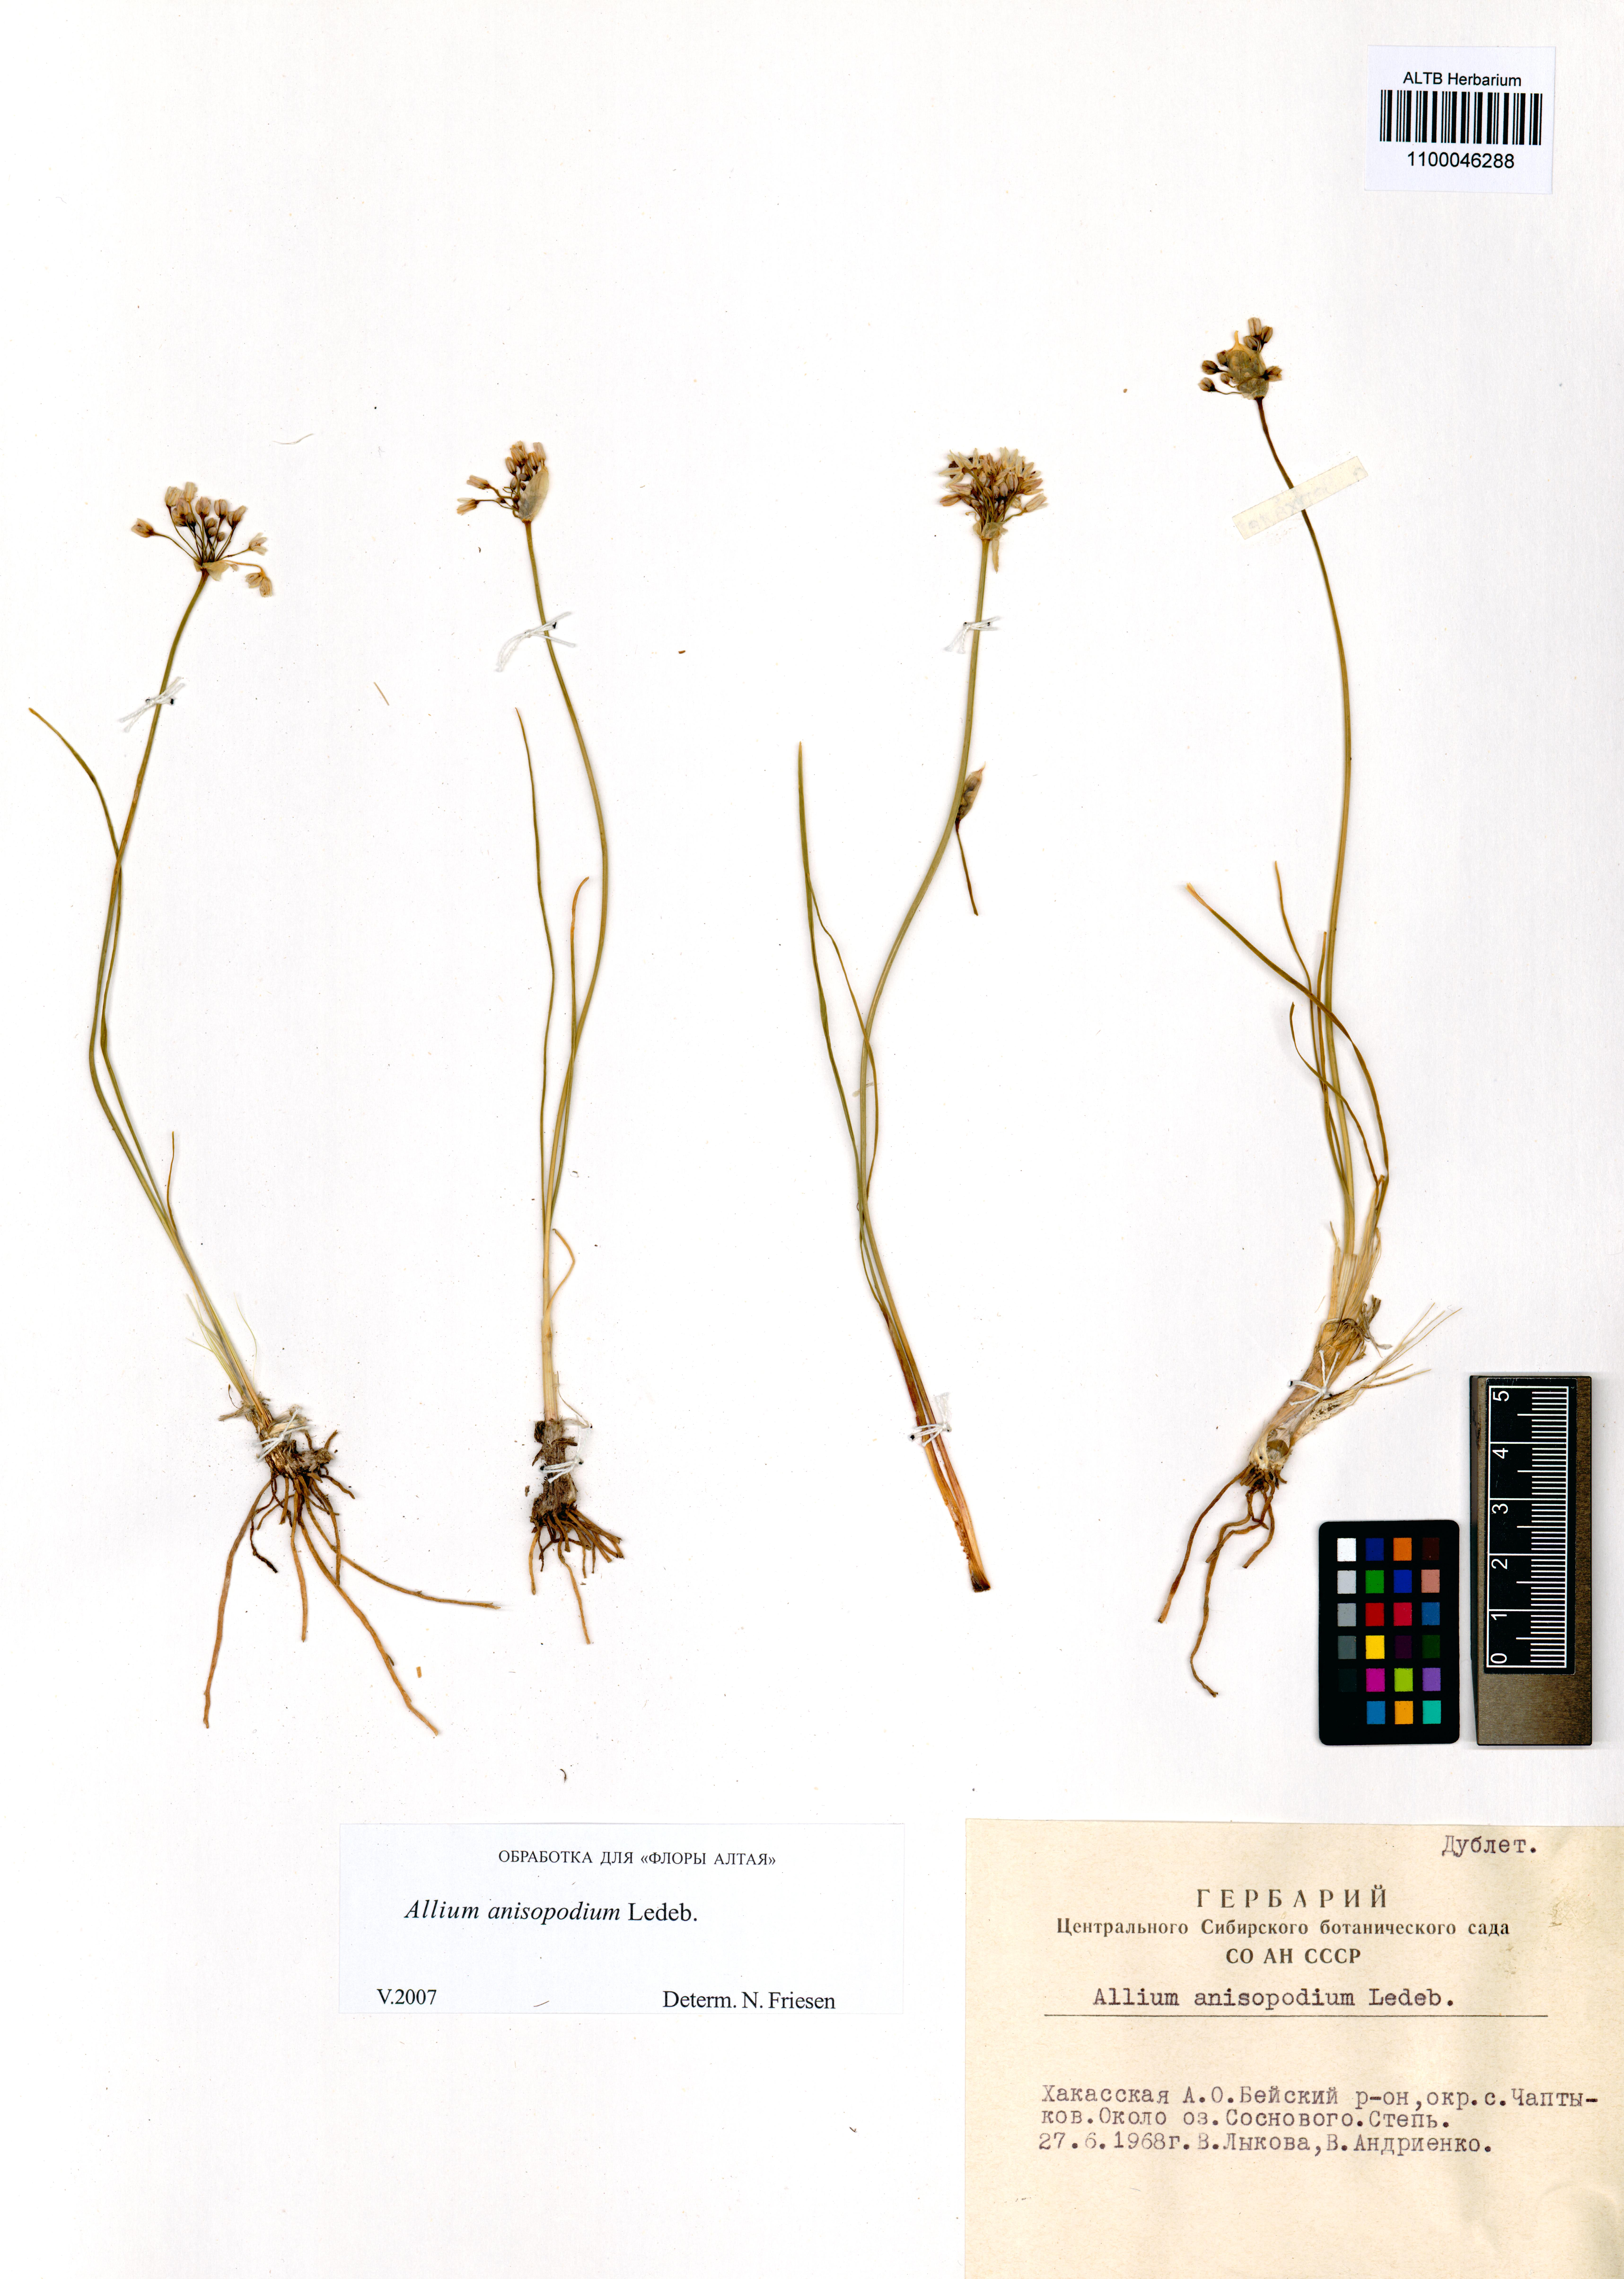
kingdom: Plantae
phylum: Tracheophyta
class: Liliopsida
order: Asparagales
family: Amaryllidaceae
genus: Allium
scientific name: Allium anisopodium
